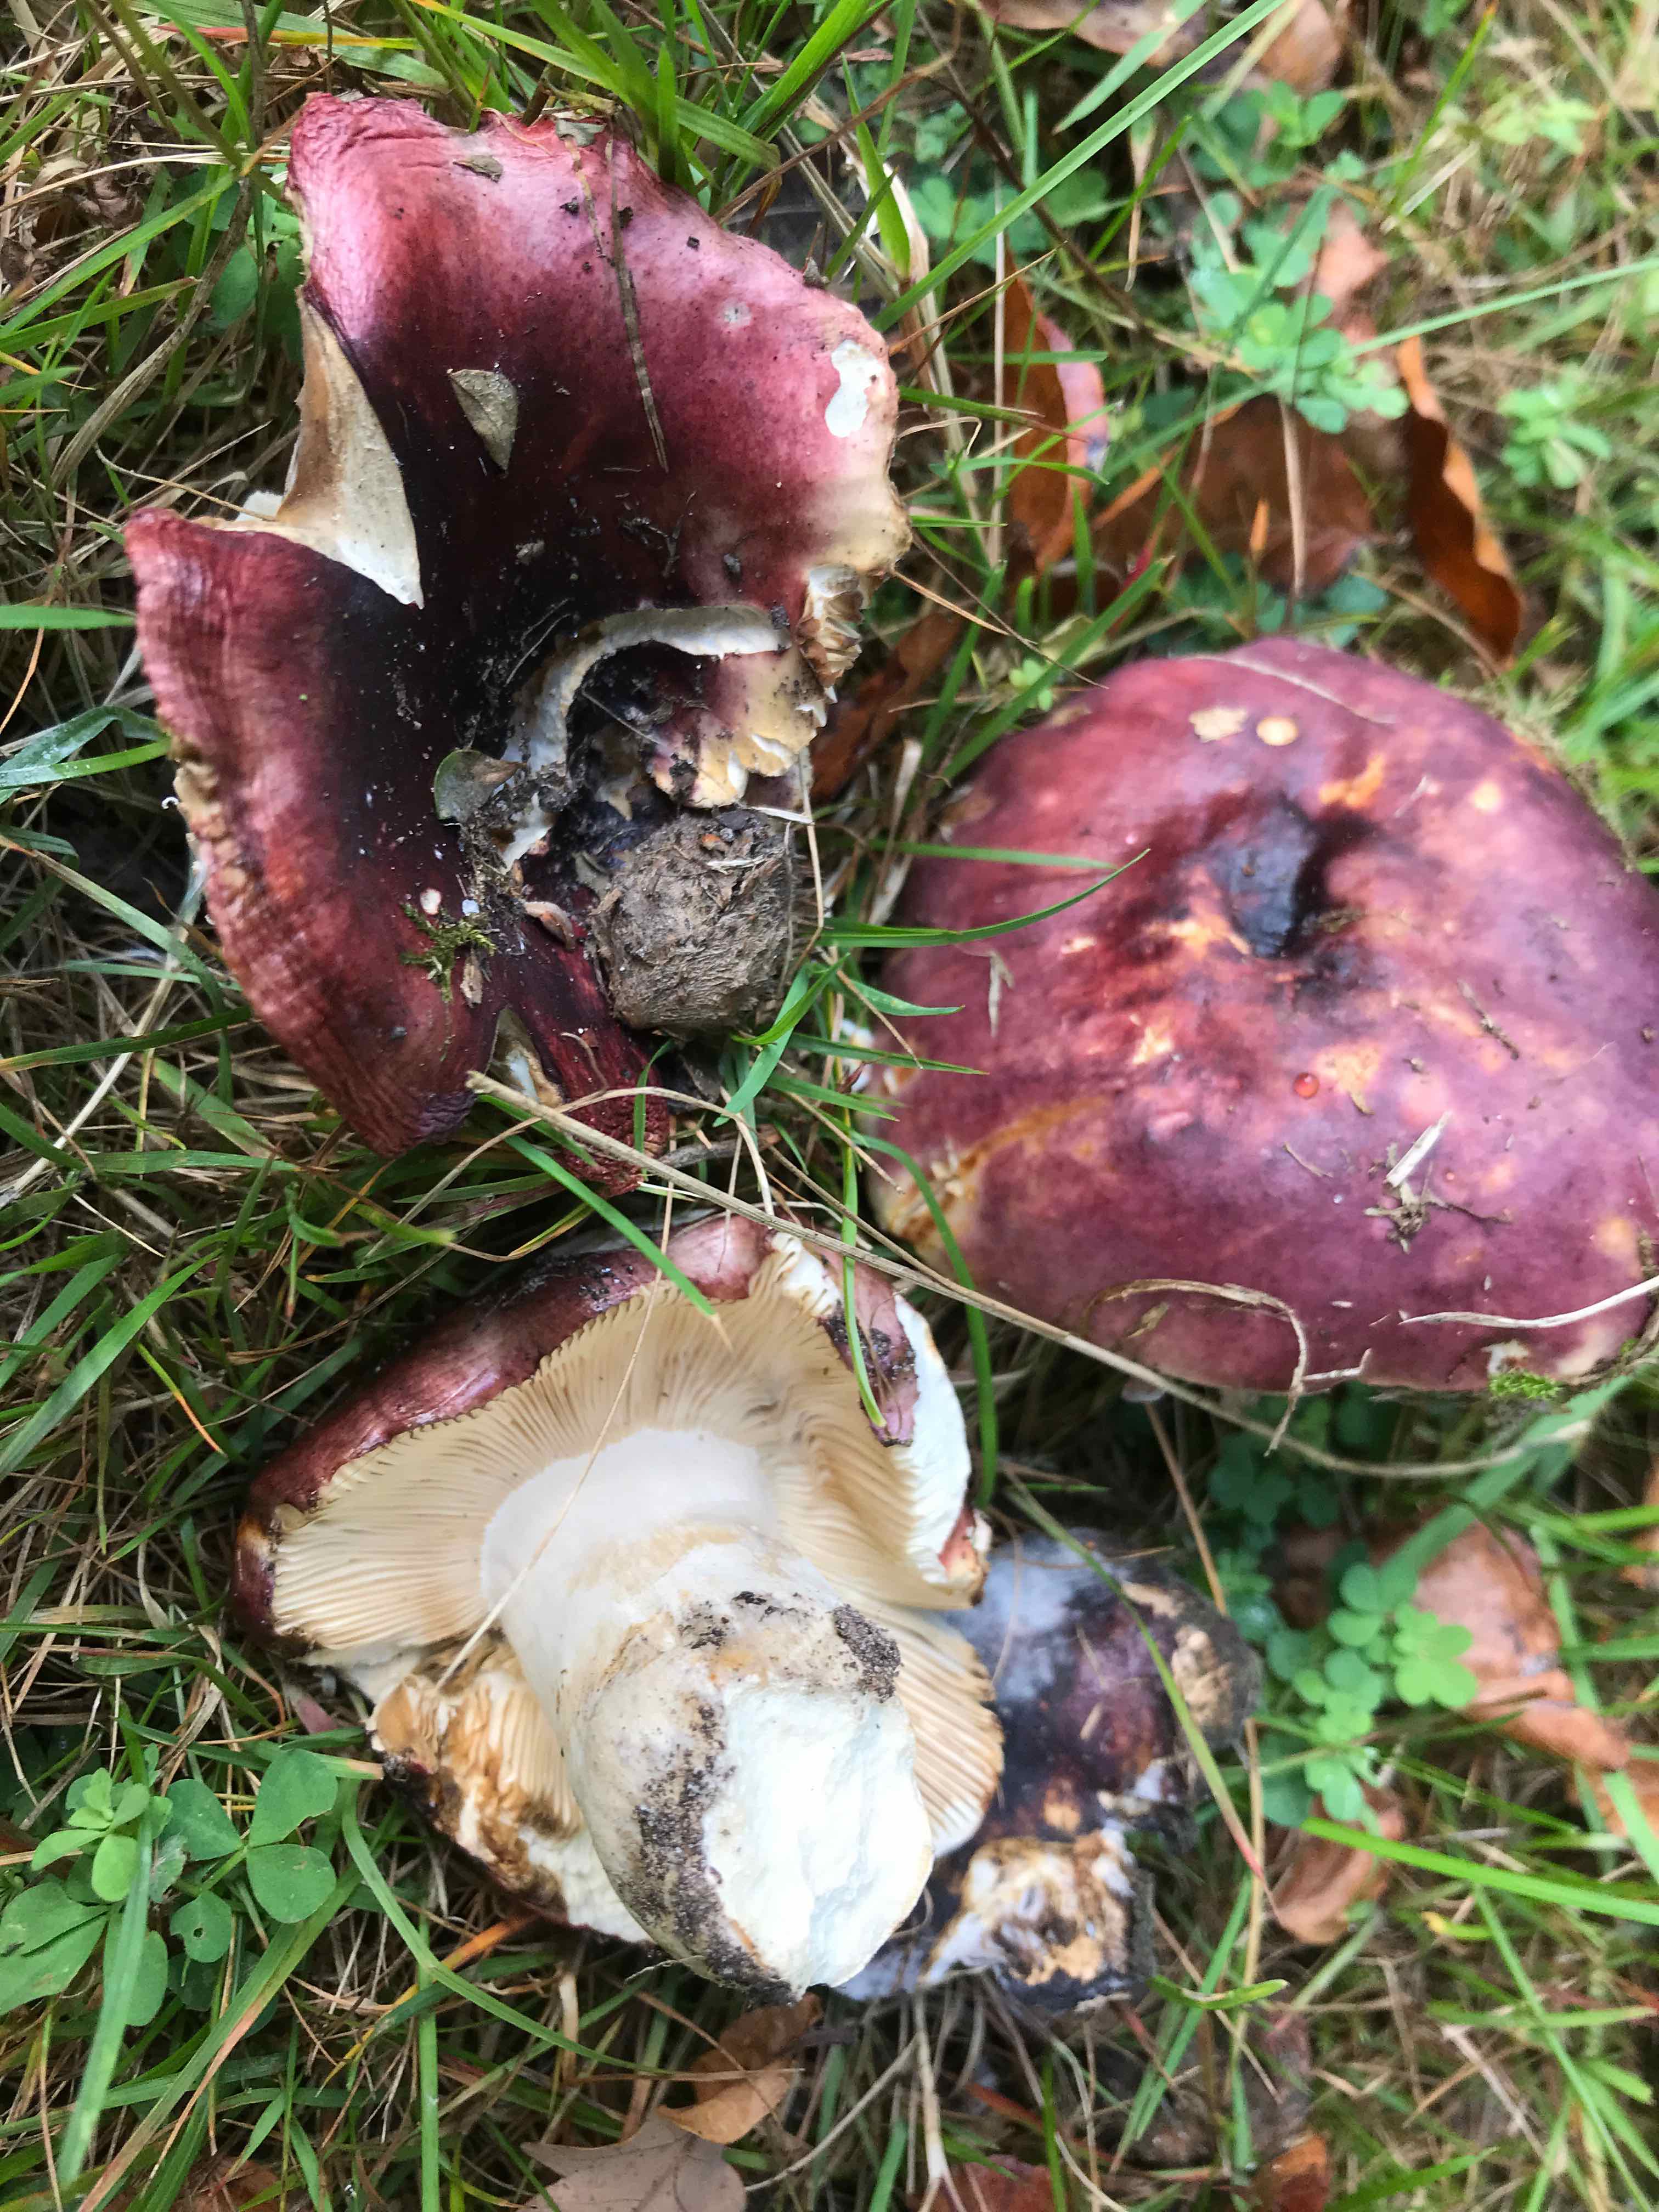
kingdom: Fungi
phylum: Basidiomycota
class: Agaricomycetes
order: Russulales
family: Russulaceae
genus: Russula
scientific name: Russula atropurpurea
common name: purpurbroget skørhat
